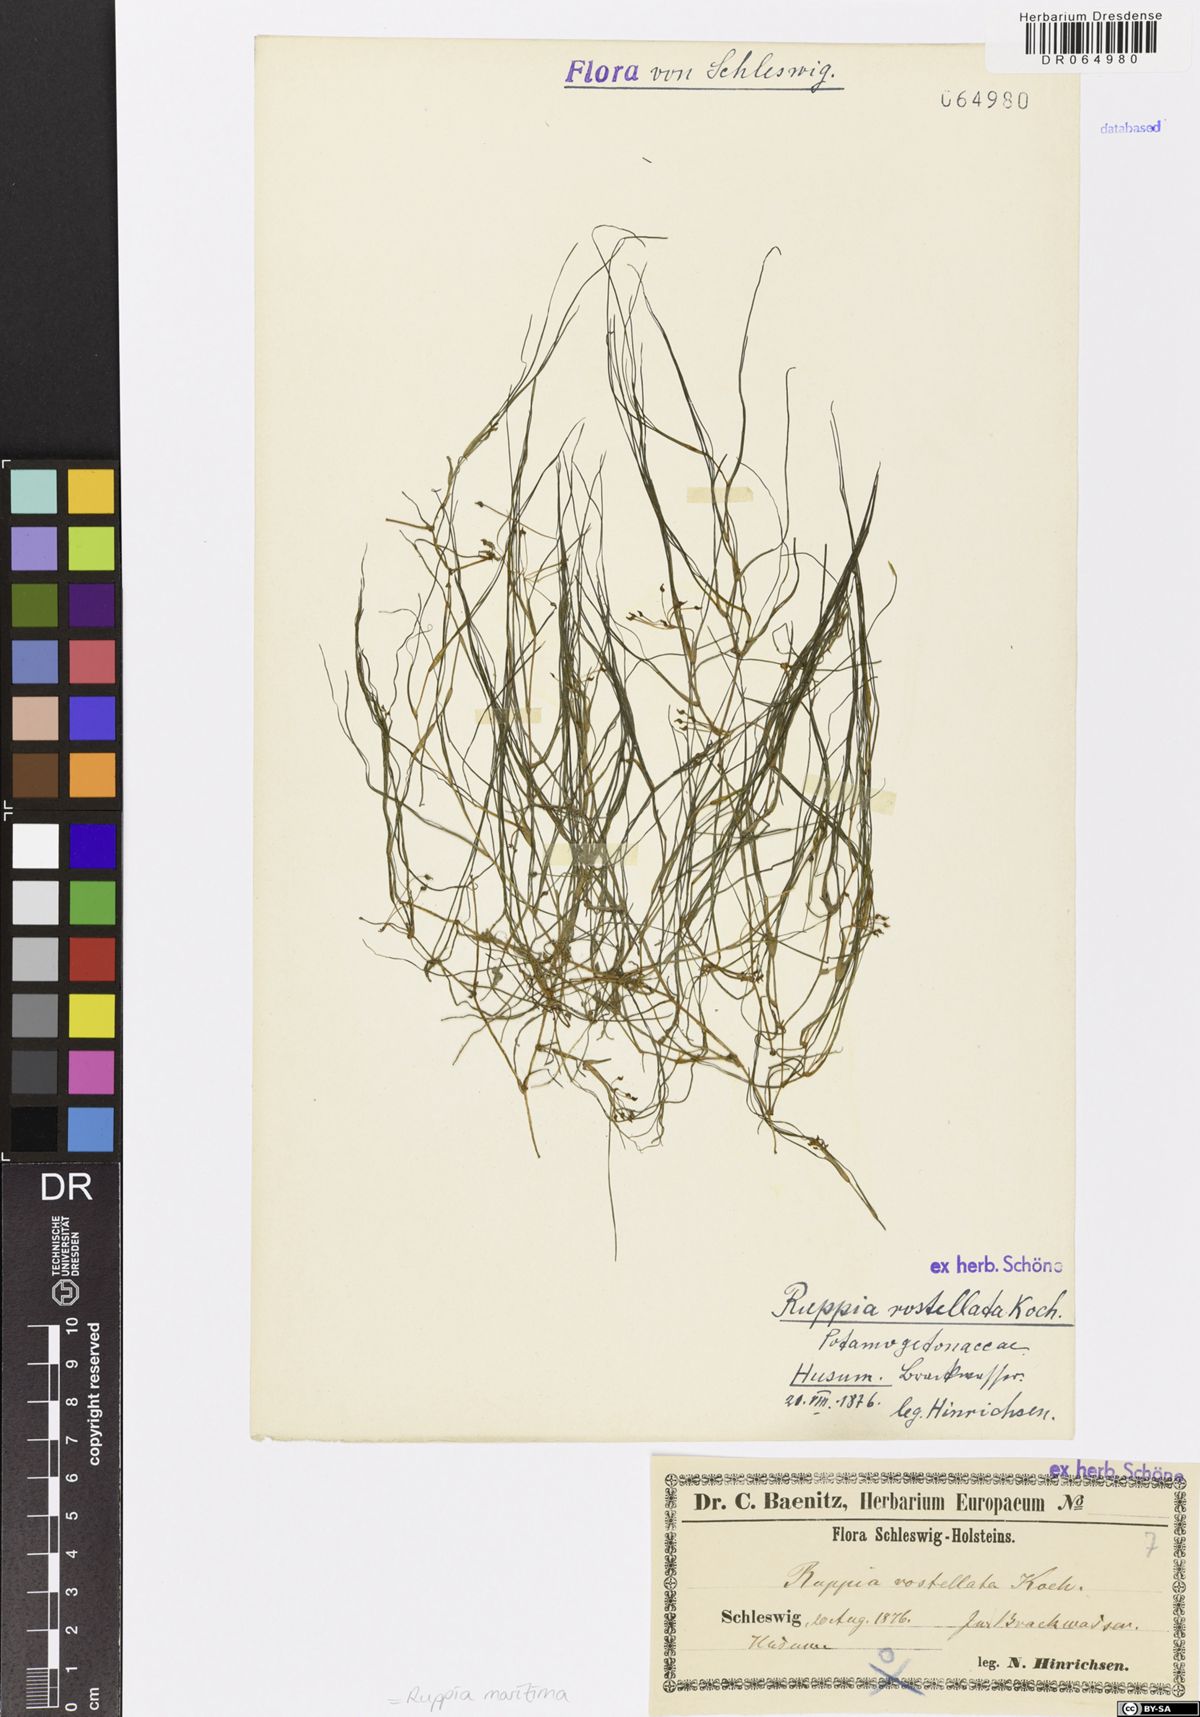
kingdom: Plantae
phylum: Tracheophyta
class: Liliopsida
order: Alismatales
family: Ruppiaceae
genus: Ruppia
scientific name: Ruppia maritima
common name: Beaked tasselweed
